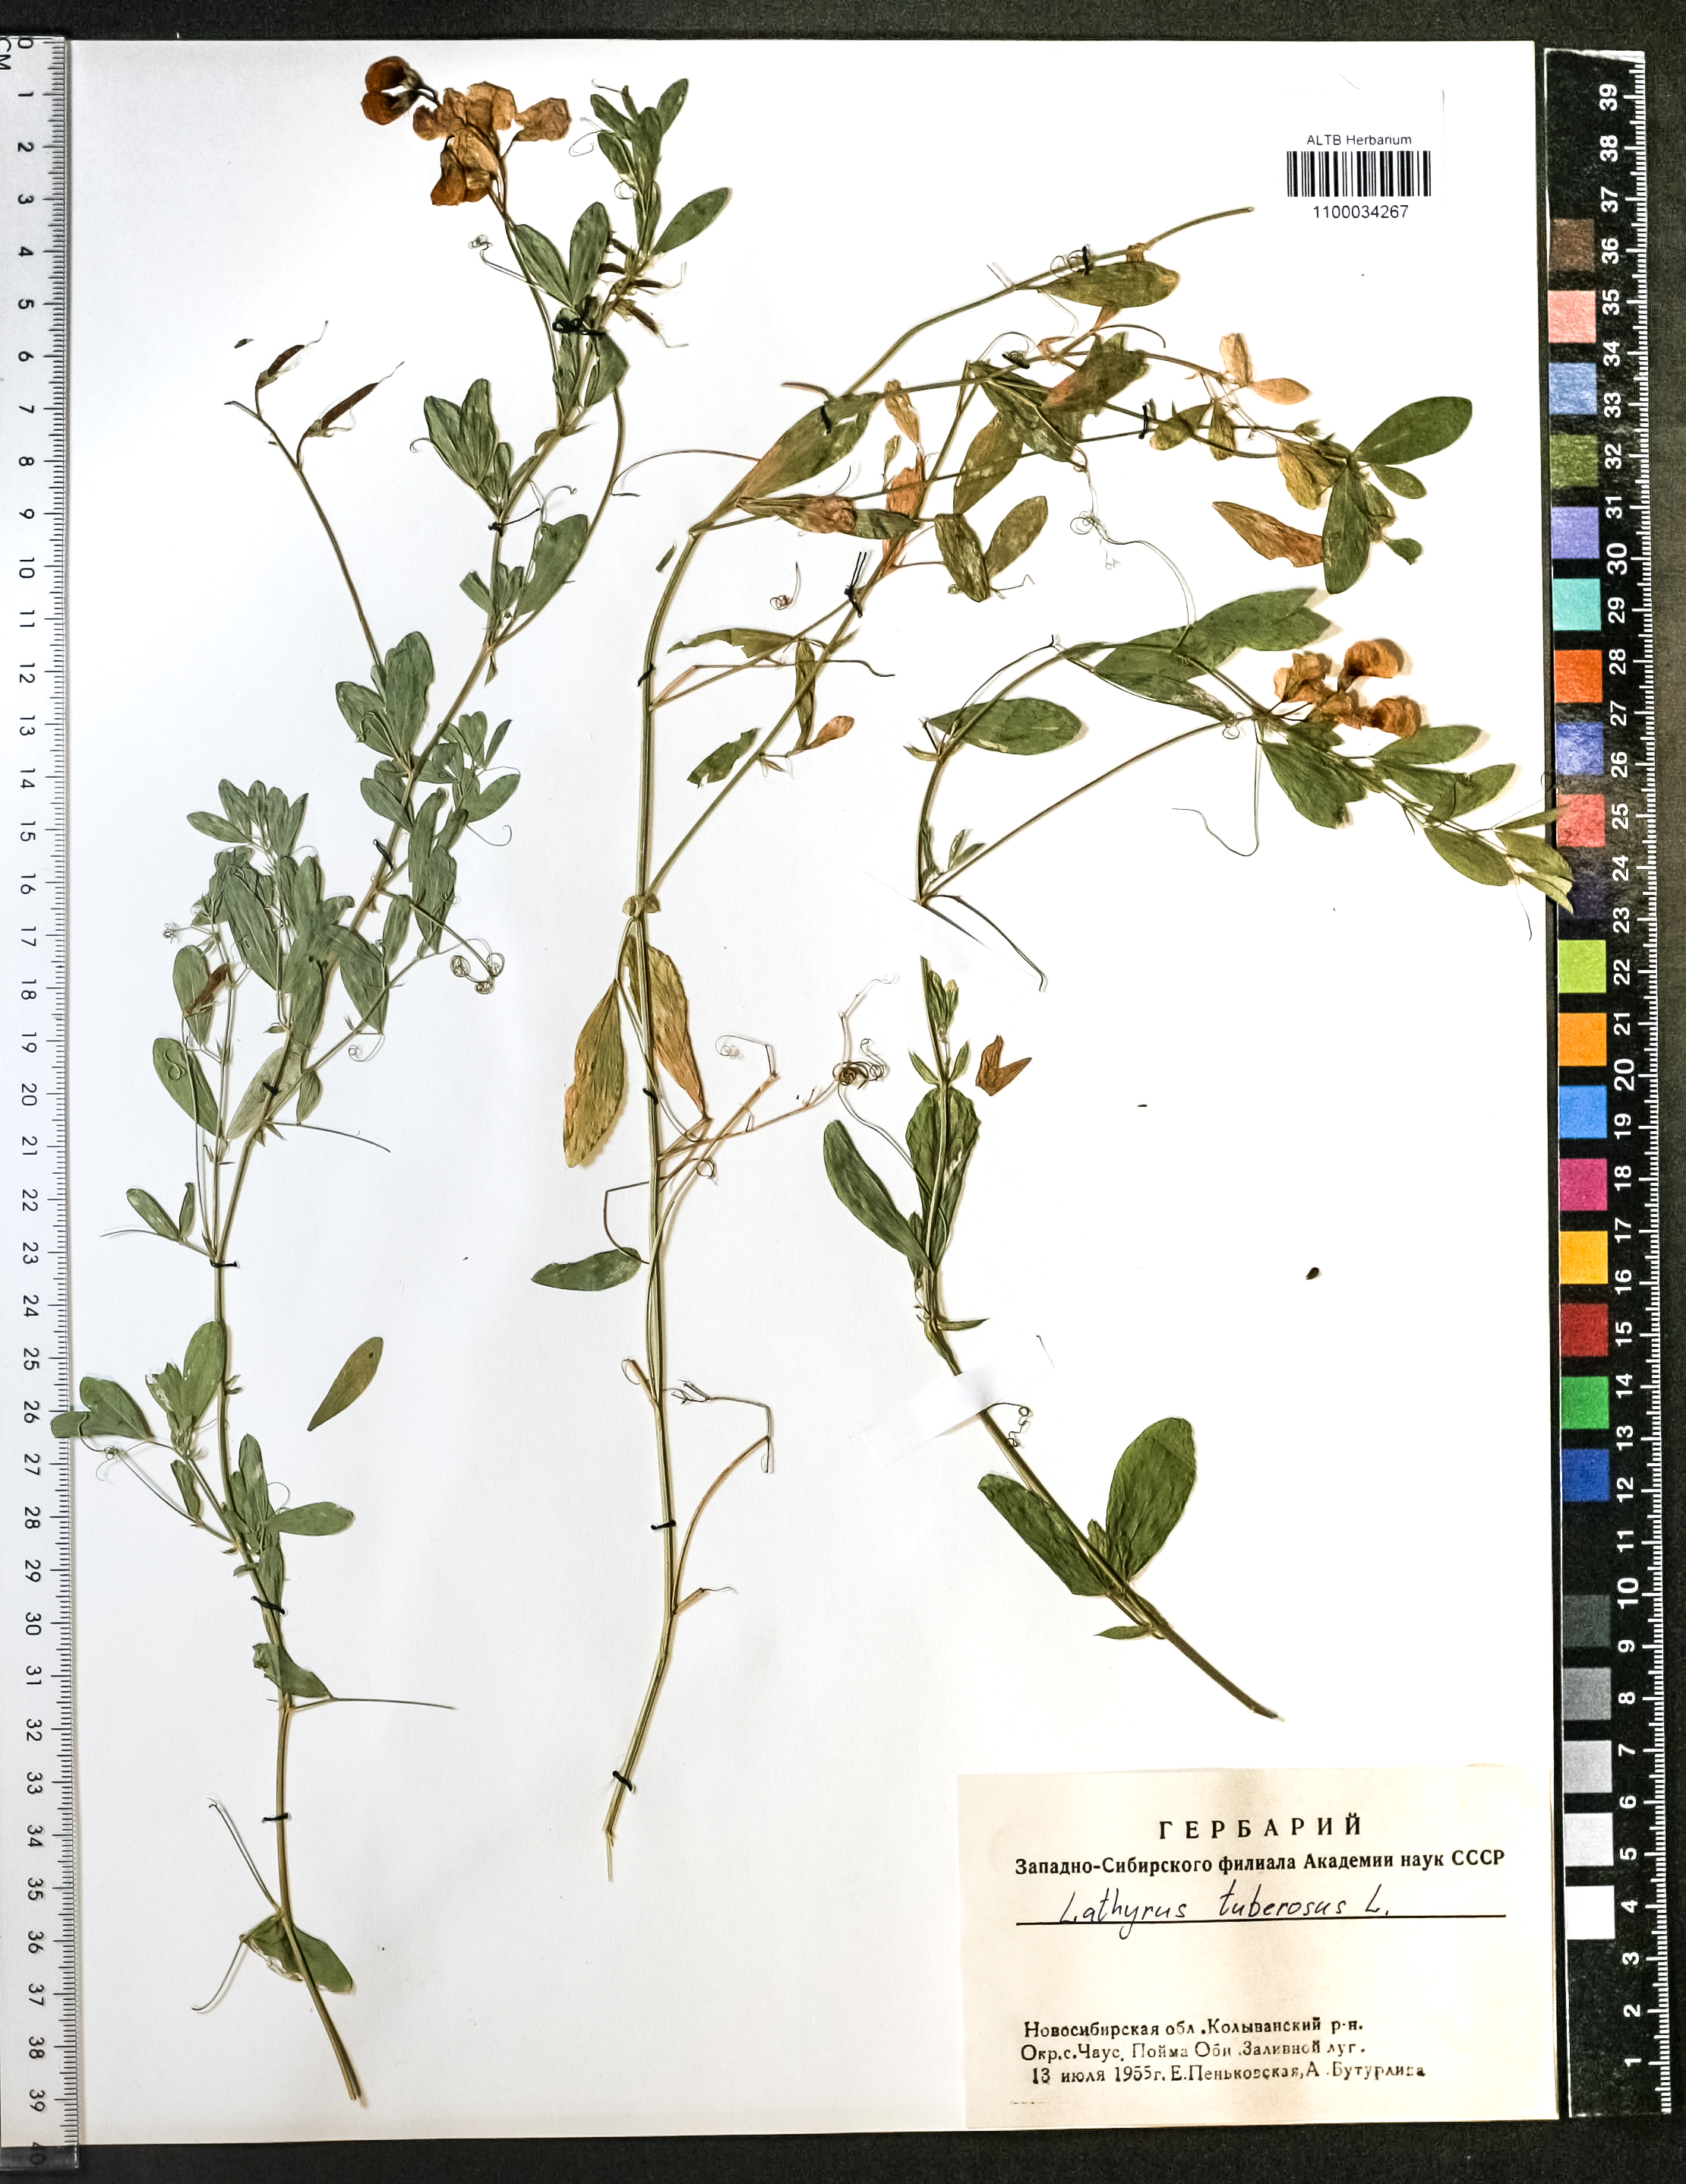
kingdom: Plantae
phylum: Tracheophyta
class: Magnoliopsida
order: Fabales
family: Fabaceae
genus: Lathyrus
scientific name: Lathyrus tuberosus
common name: Tuberous pea
